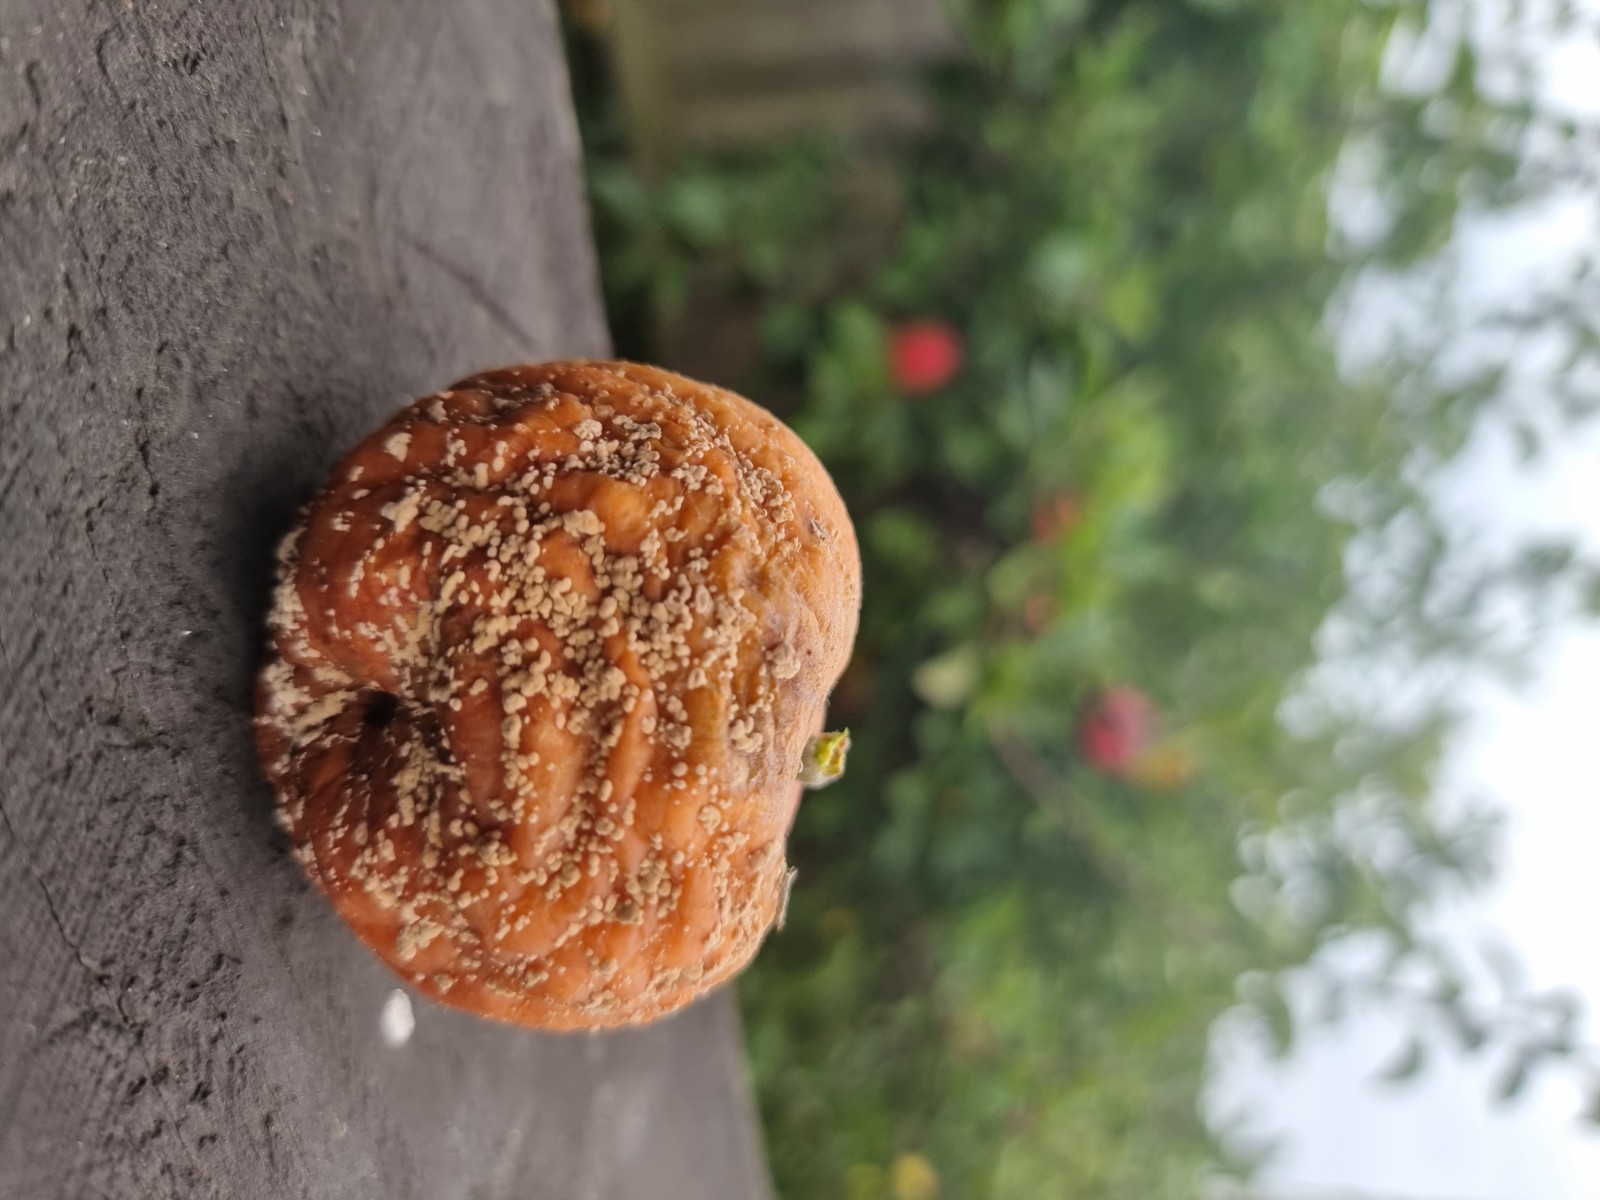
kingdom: Fungi
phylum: Ascomycota
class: Leotiomycetes
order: Helotiales
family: Sclerotiniaceae
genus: Monilinia
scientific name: Monilinia fructigena
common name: æble-knoldskive
